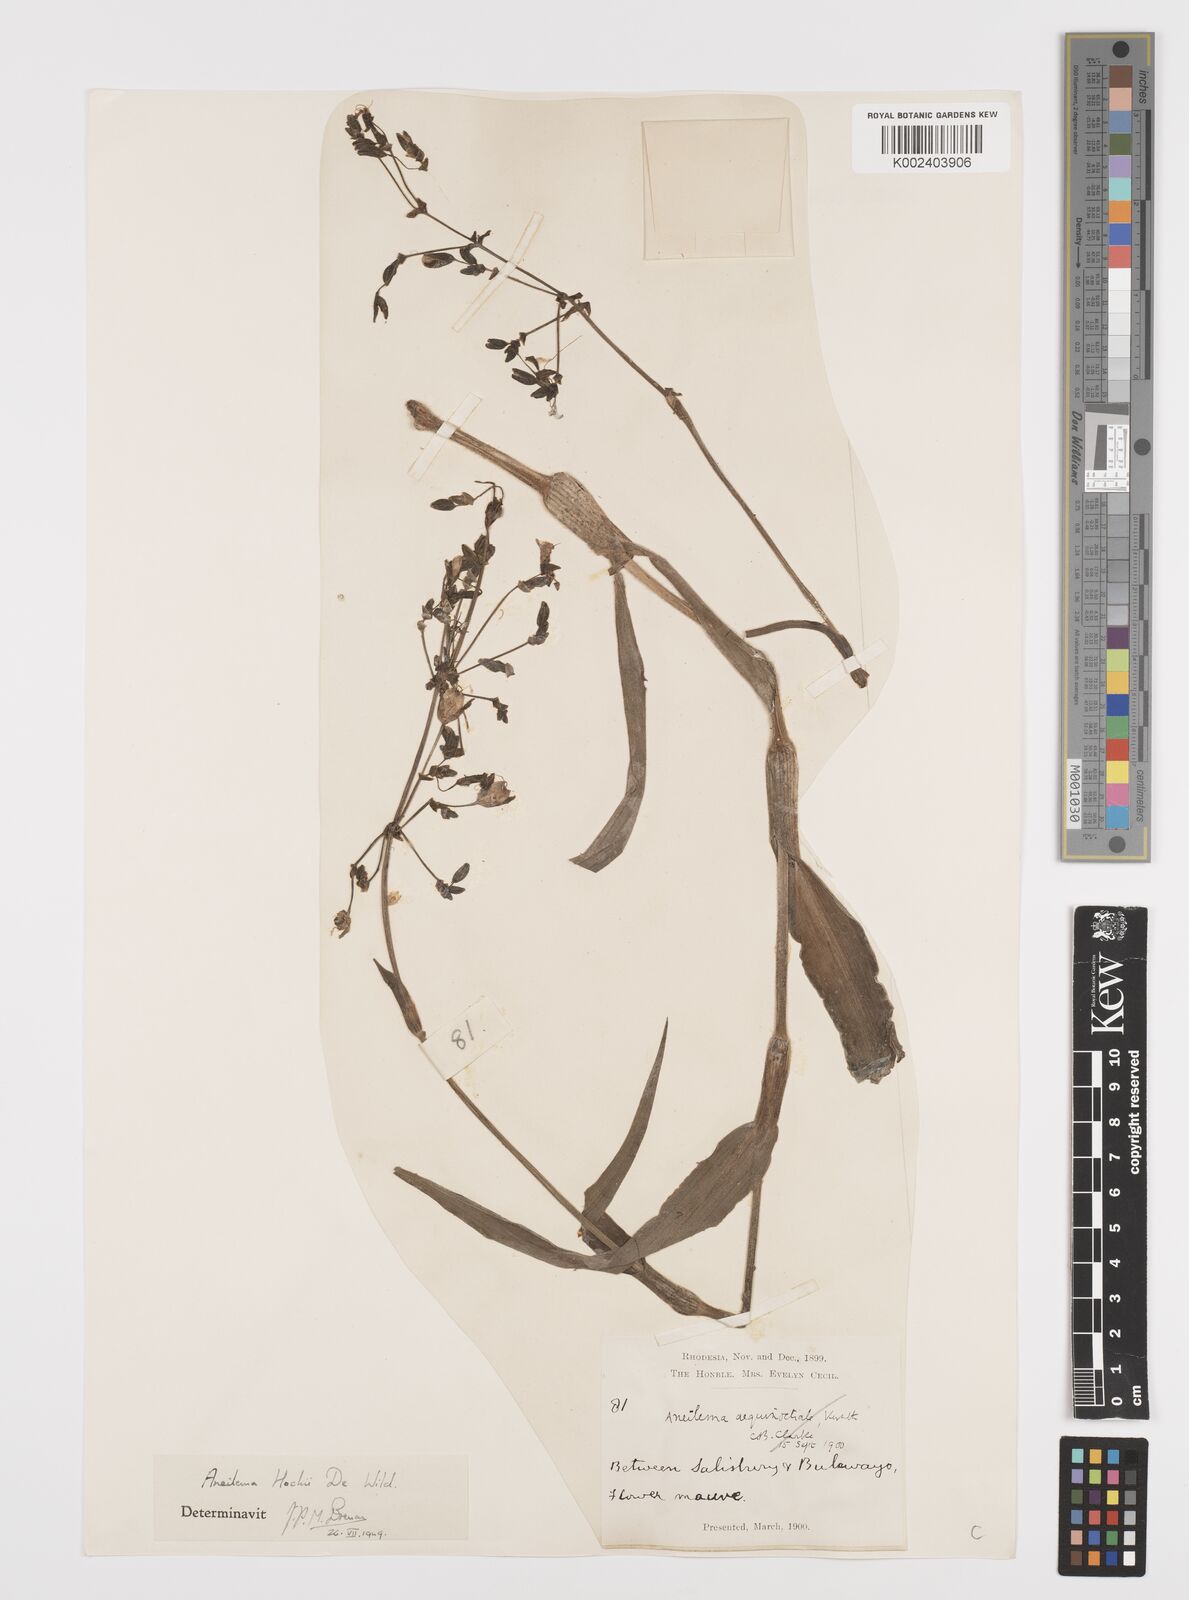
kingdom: Plantae
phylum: Tracheophyta
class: Liliopsida
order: Commelinales
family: Commelinaceae
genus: Aneilema
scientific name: Aneilema hockii
